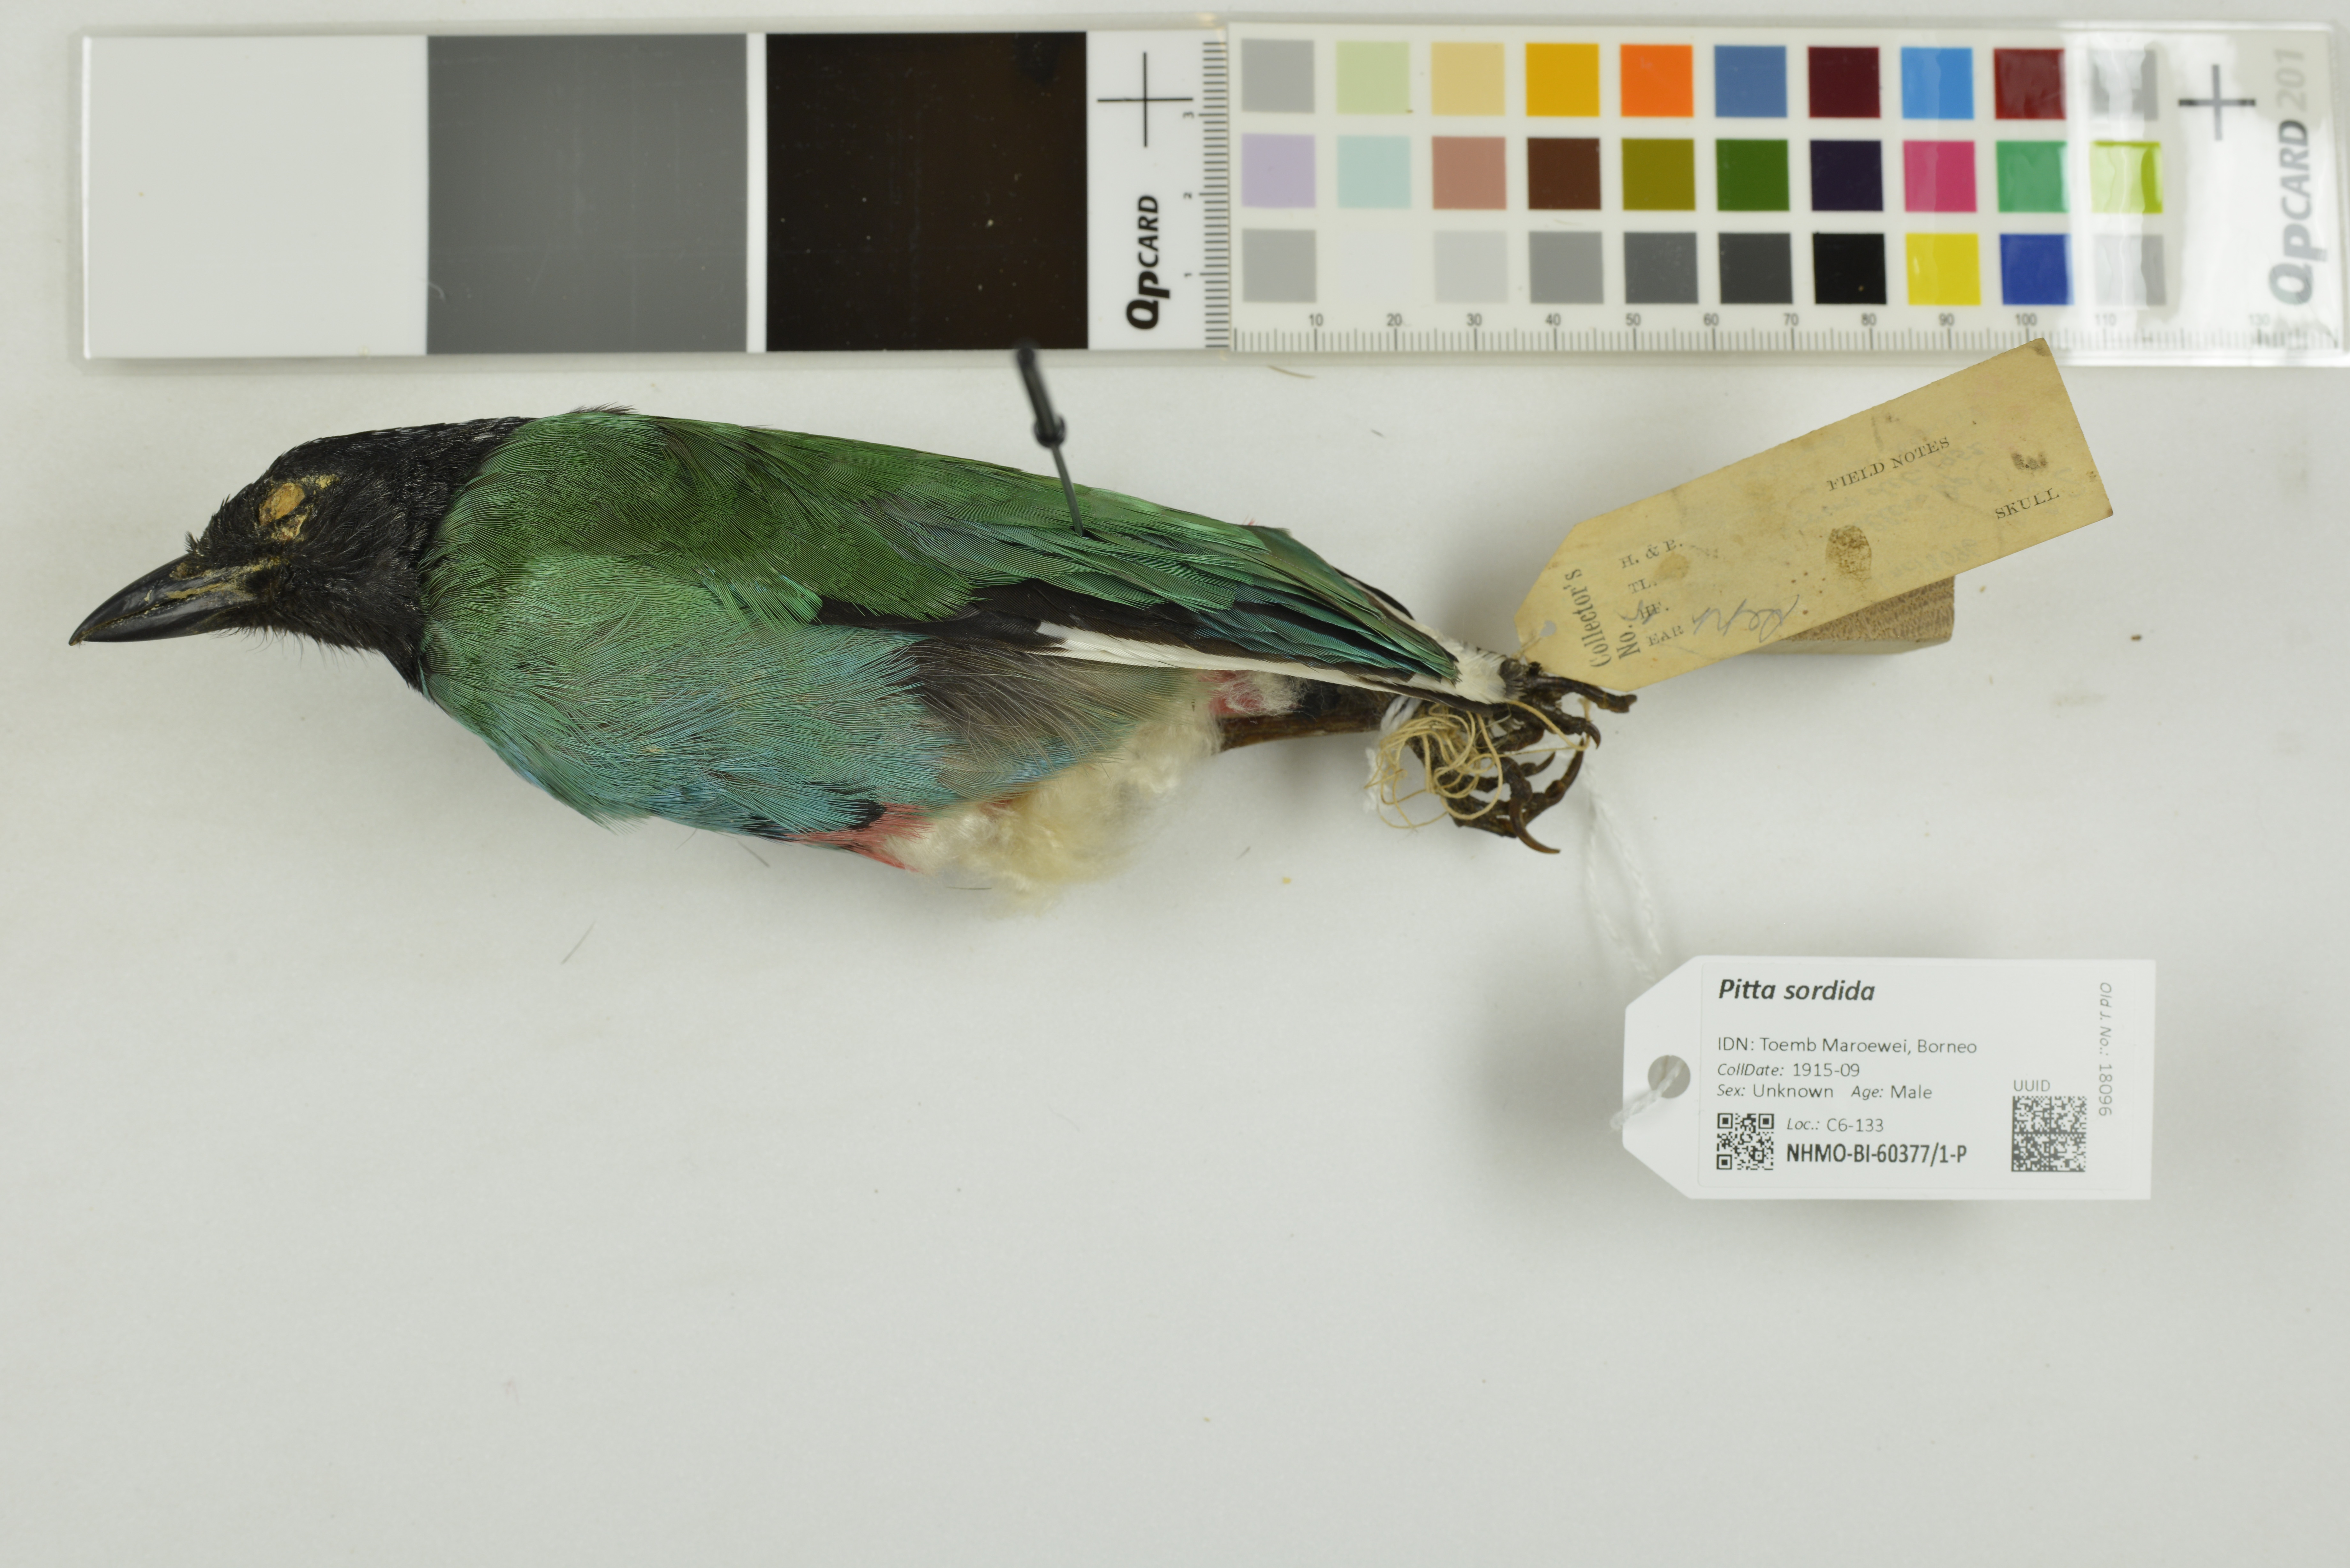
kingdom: Animalia
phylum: Chordata
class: Aves
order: Passeriformes
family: Pittidae
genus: Pitta
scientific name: Pitta sordida
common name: Hooded pitta
